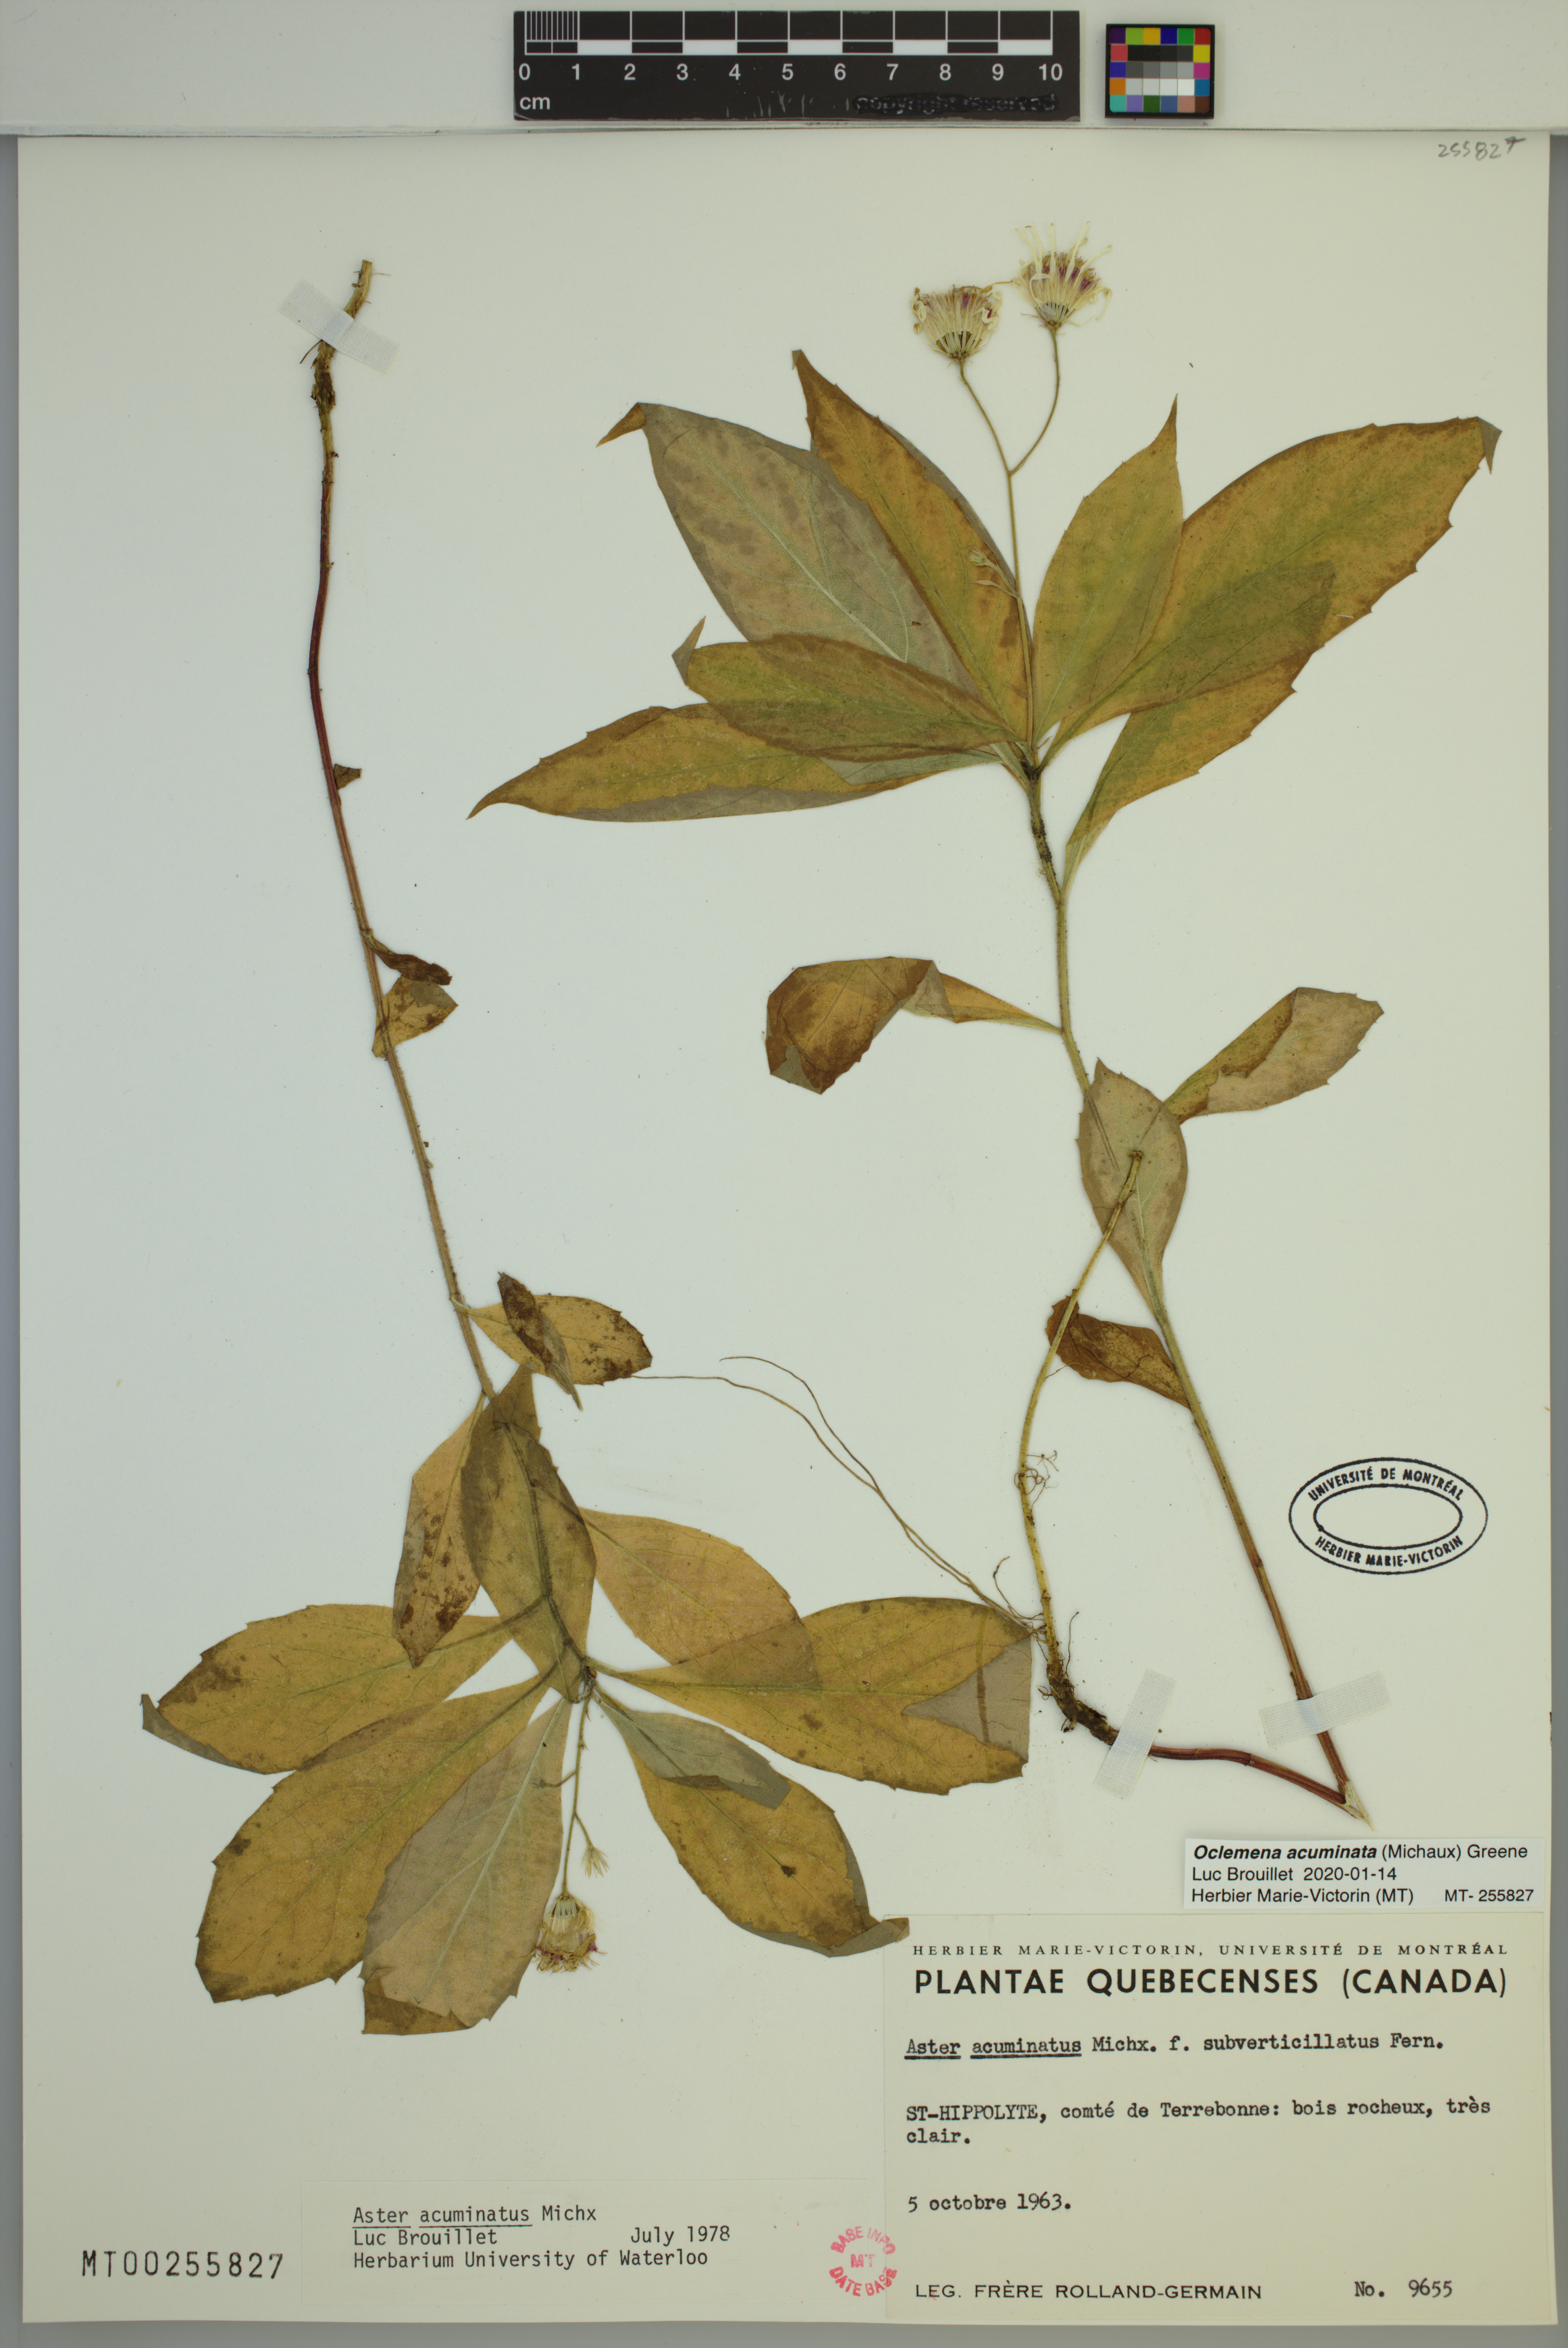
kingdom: Plantae
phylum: Tracheophyta
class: Magnoliopsida
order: Asterales
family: Asteraceae
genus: Oclemena
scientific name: Oclemena acuminata
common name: Mountain aster
